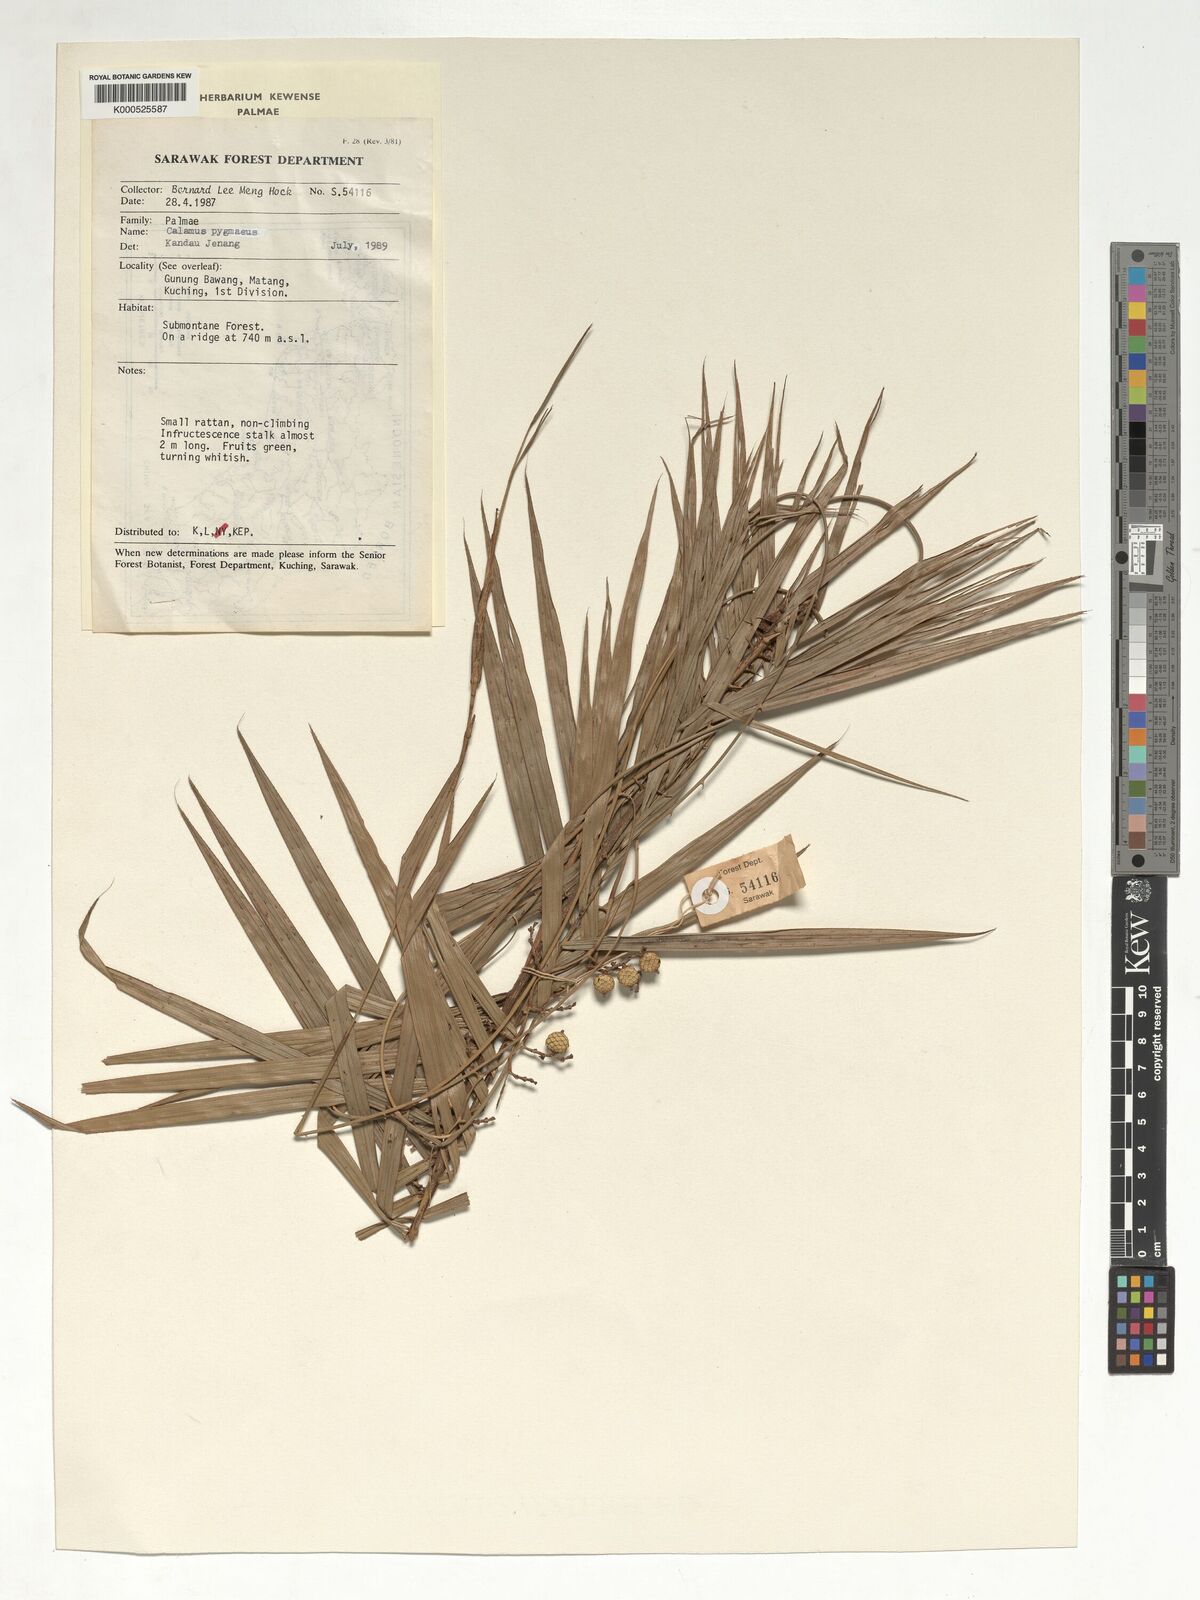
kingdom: Plantae
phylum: Tracheophyta
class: Liliopsida
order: Arecales
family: Arecaceae
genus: Calamus
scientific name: Calamus pygmaeus
